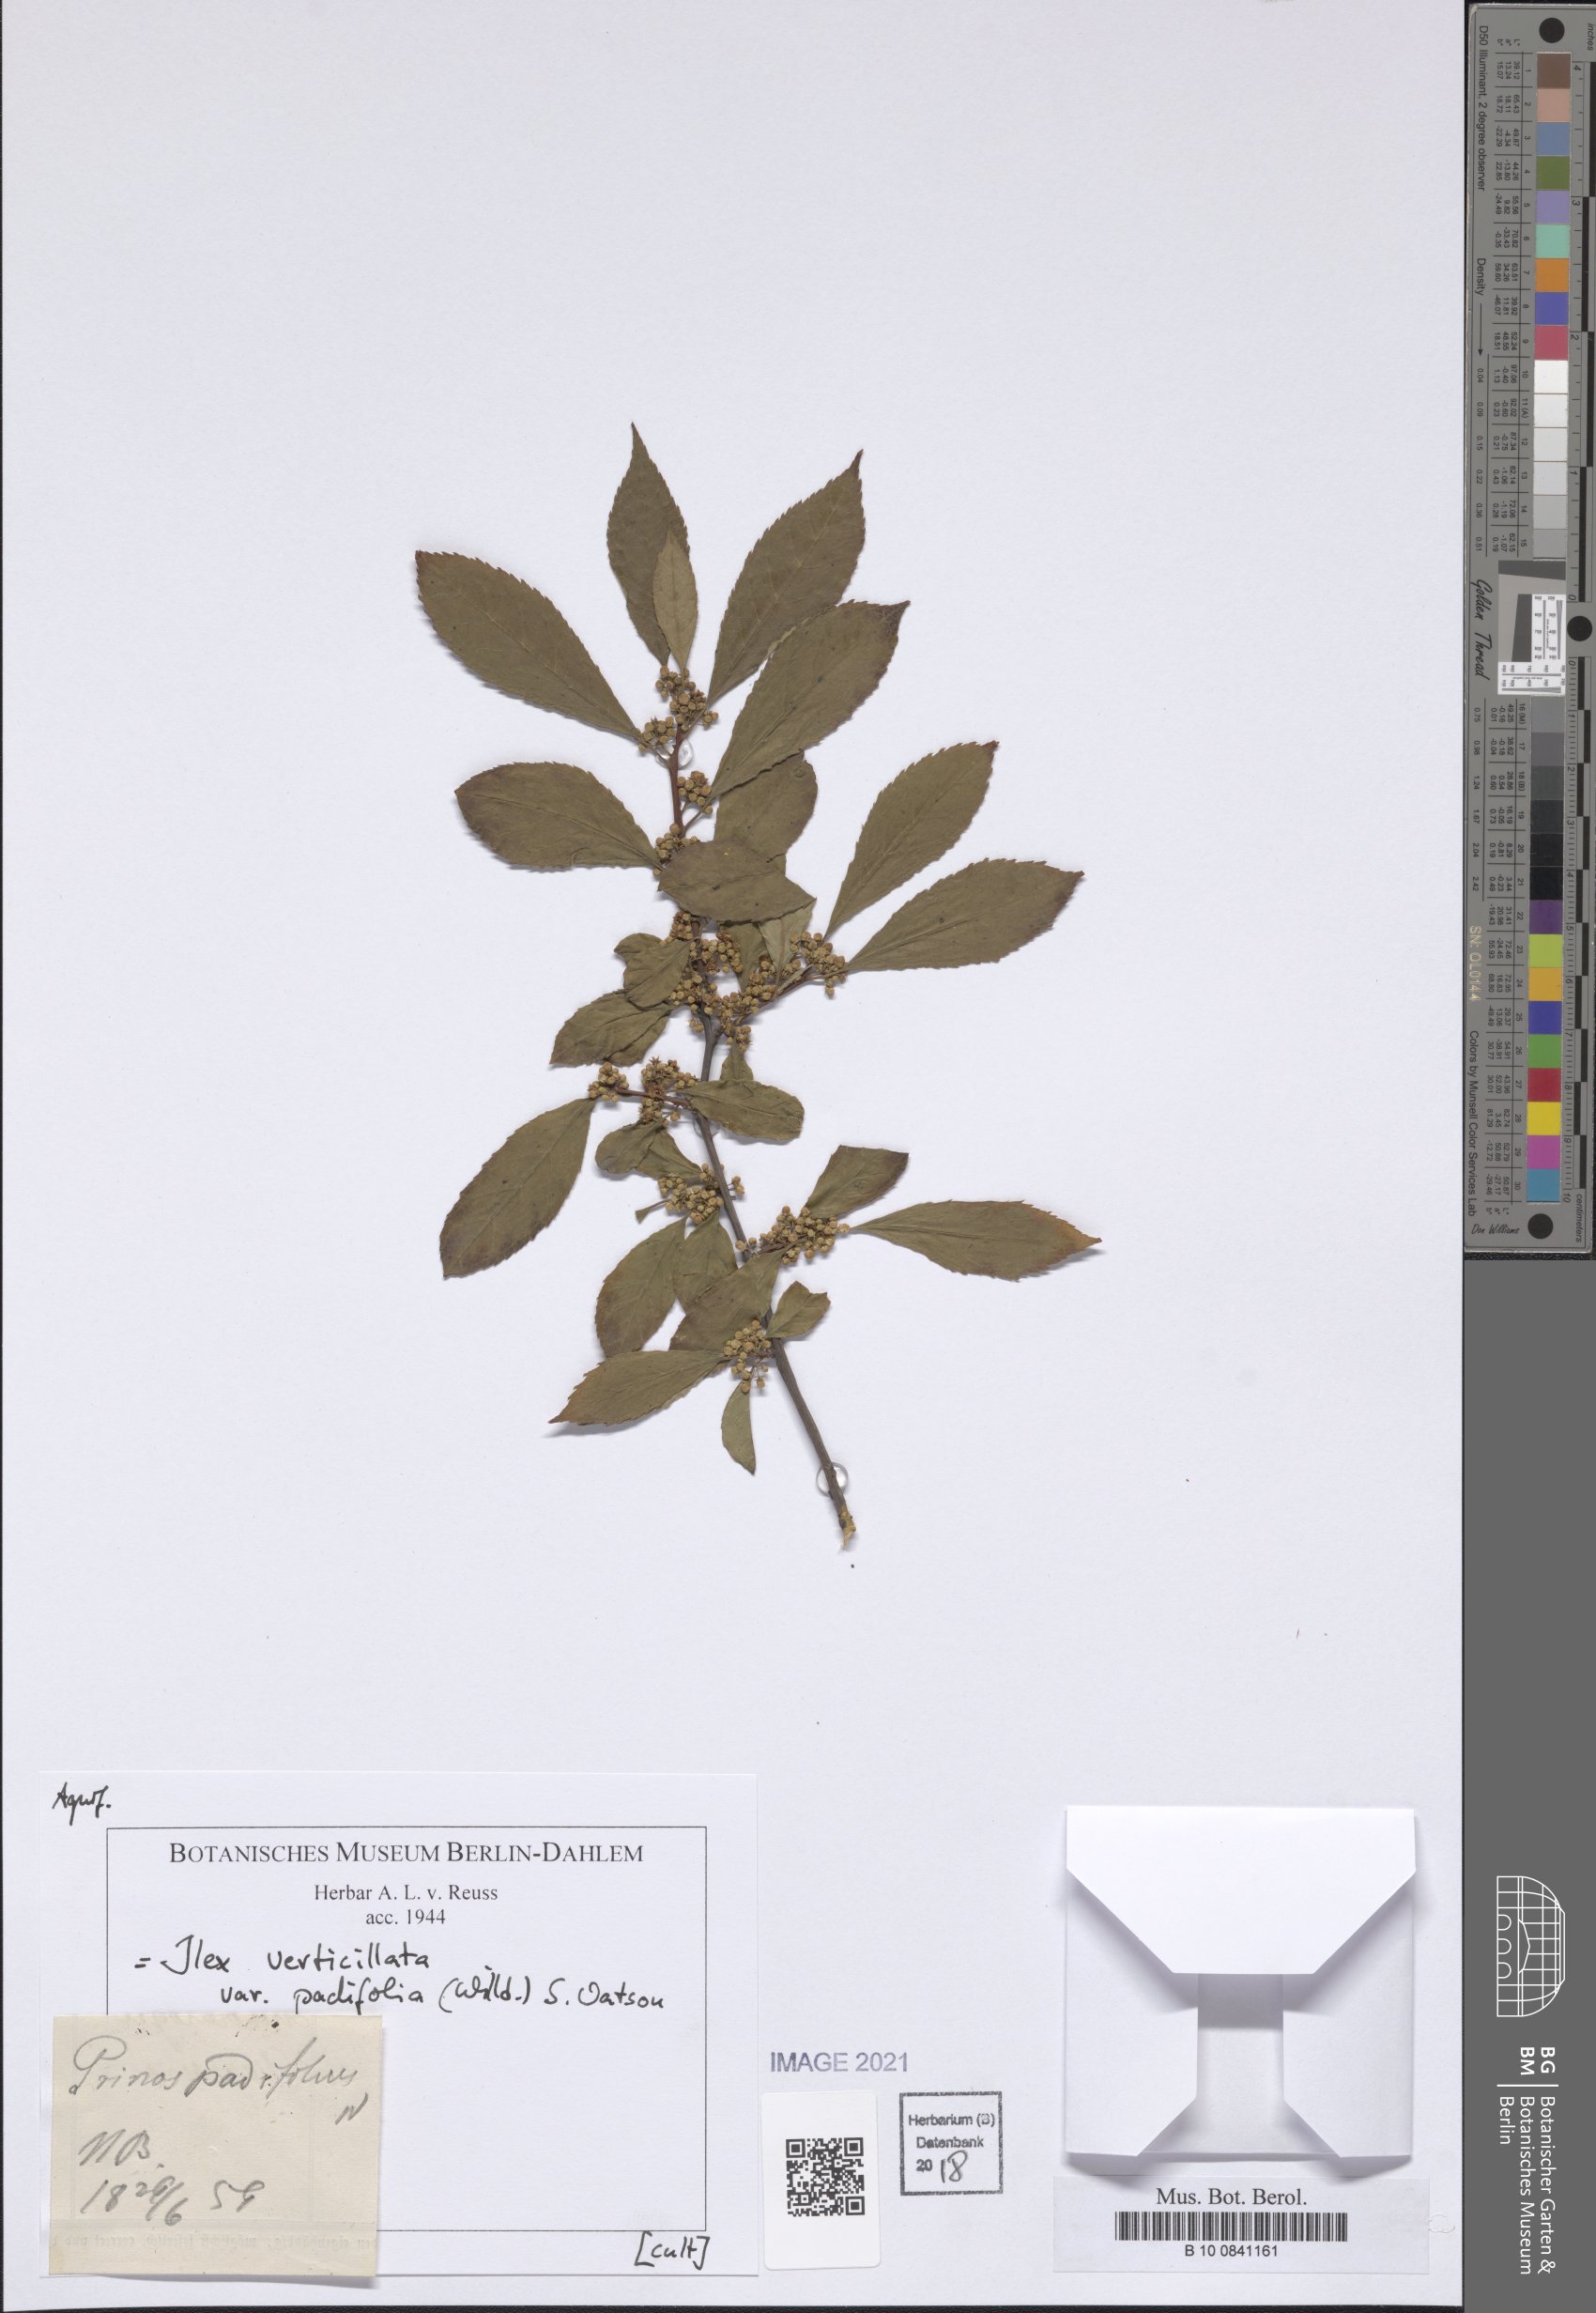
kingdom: Plantae
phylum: Tracheophyta
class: Magnoliopsida
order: Aquifoliales
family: Aquifoliaceae
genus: Ilex
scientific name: Ilex verticillata
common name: Virginia winterberry
